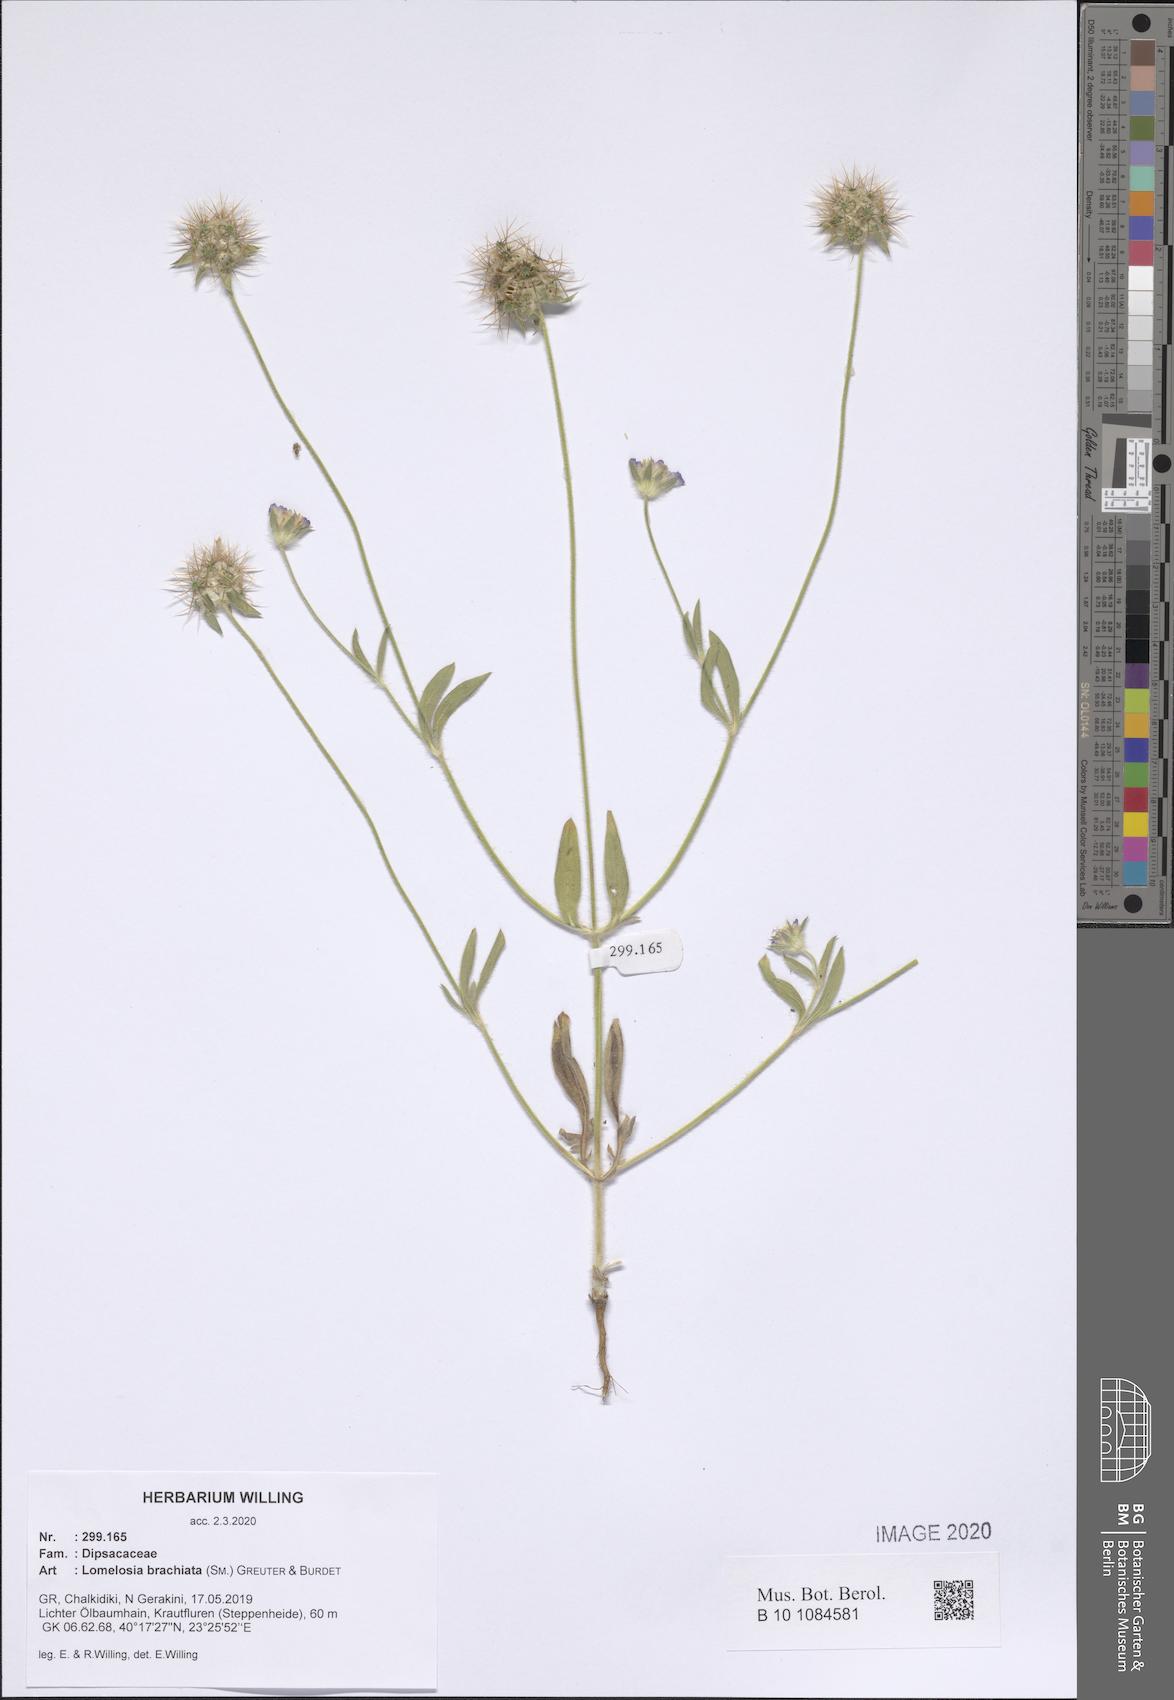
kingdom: Plantae
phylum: Tracheophyta
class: Magnoliopsida
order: Dipsacales
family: Caprifoliaceae
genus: Lomelosia
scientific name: Lomelosia brachiata
